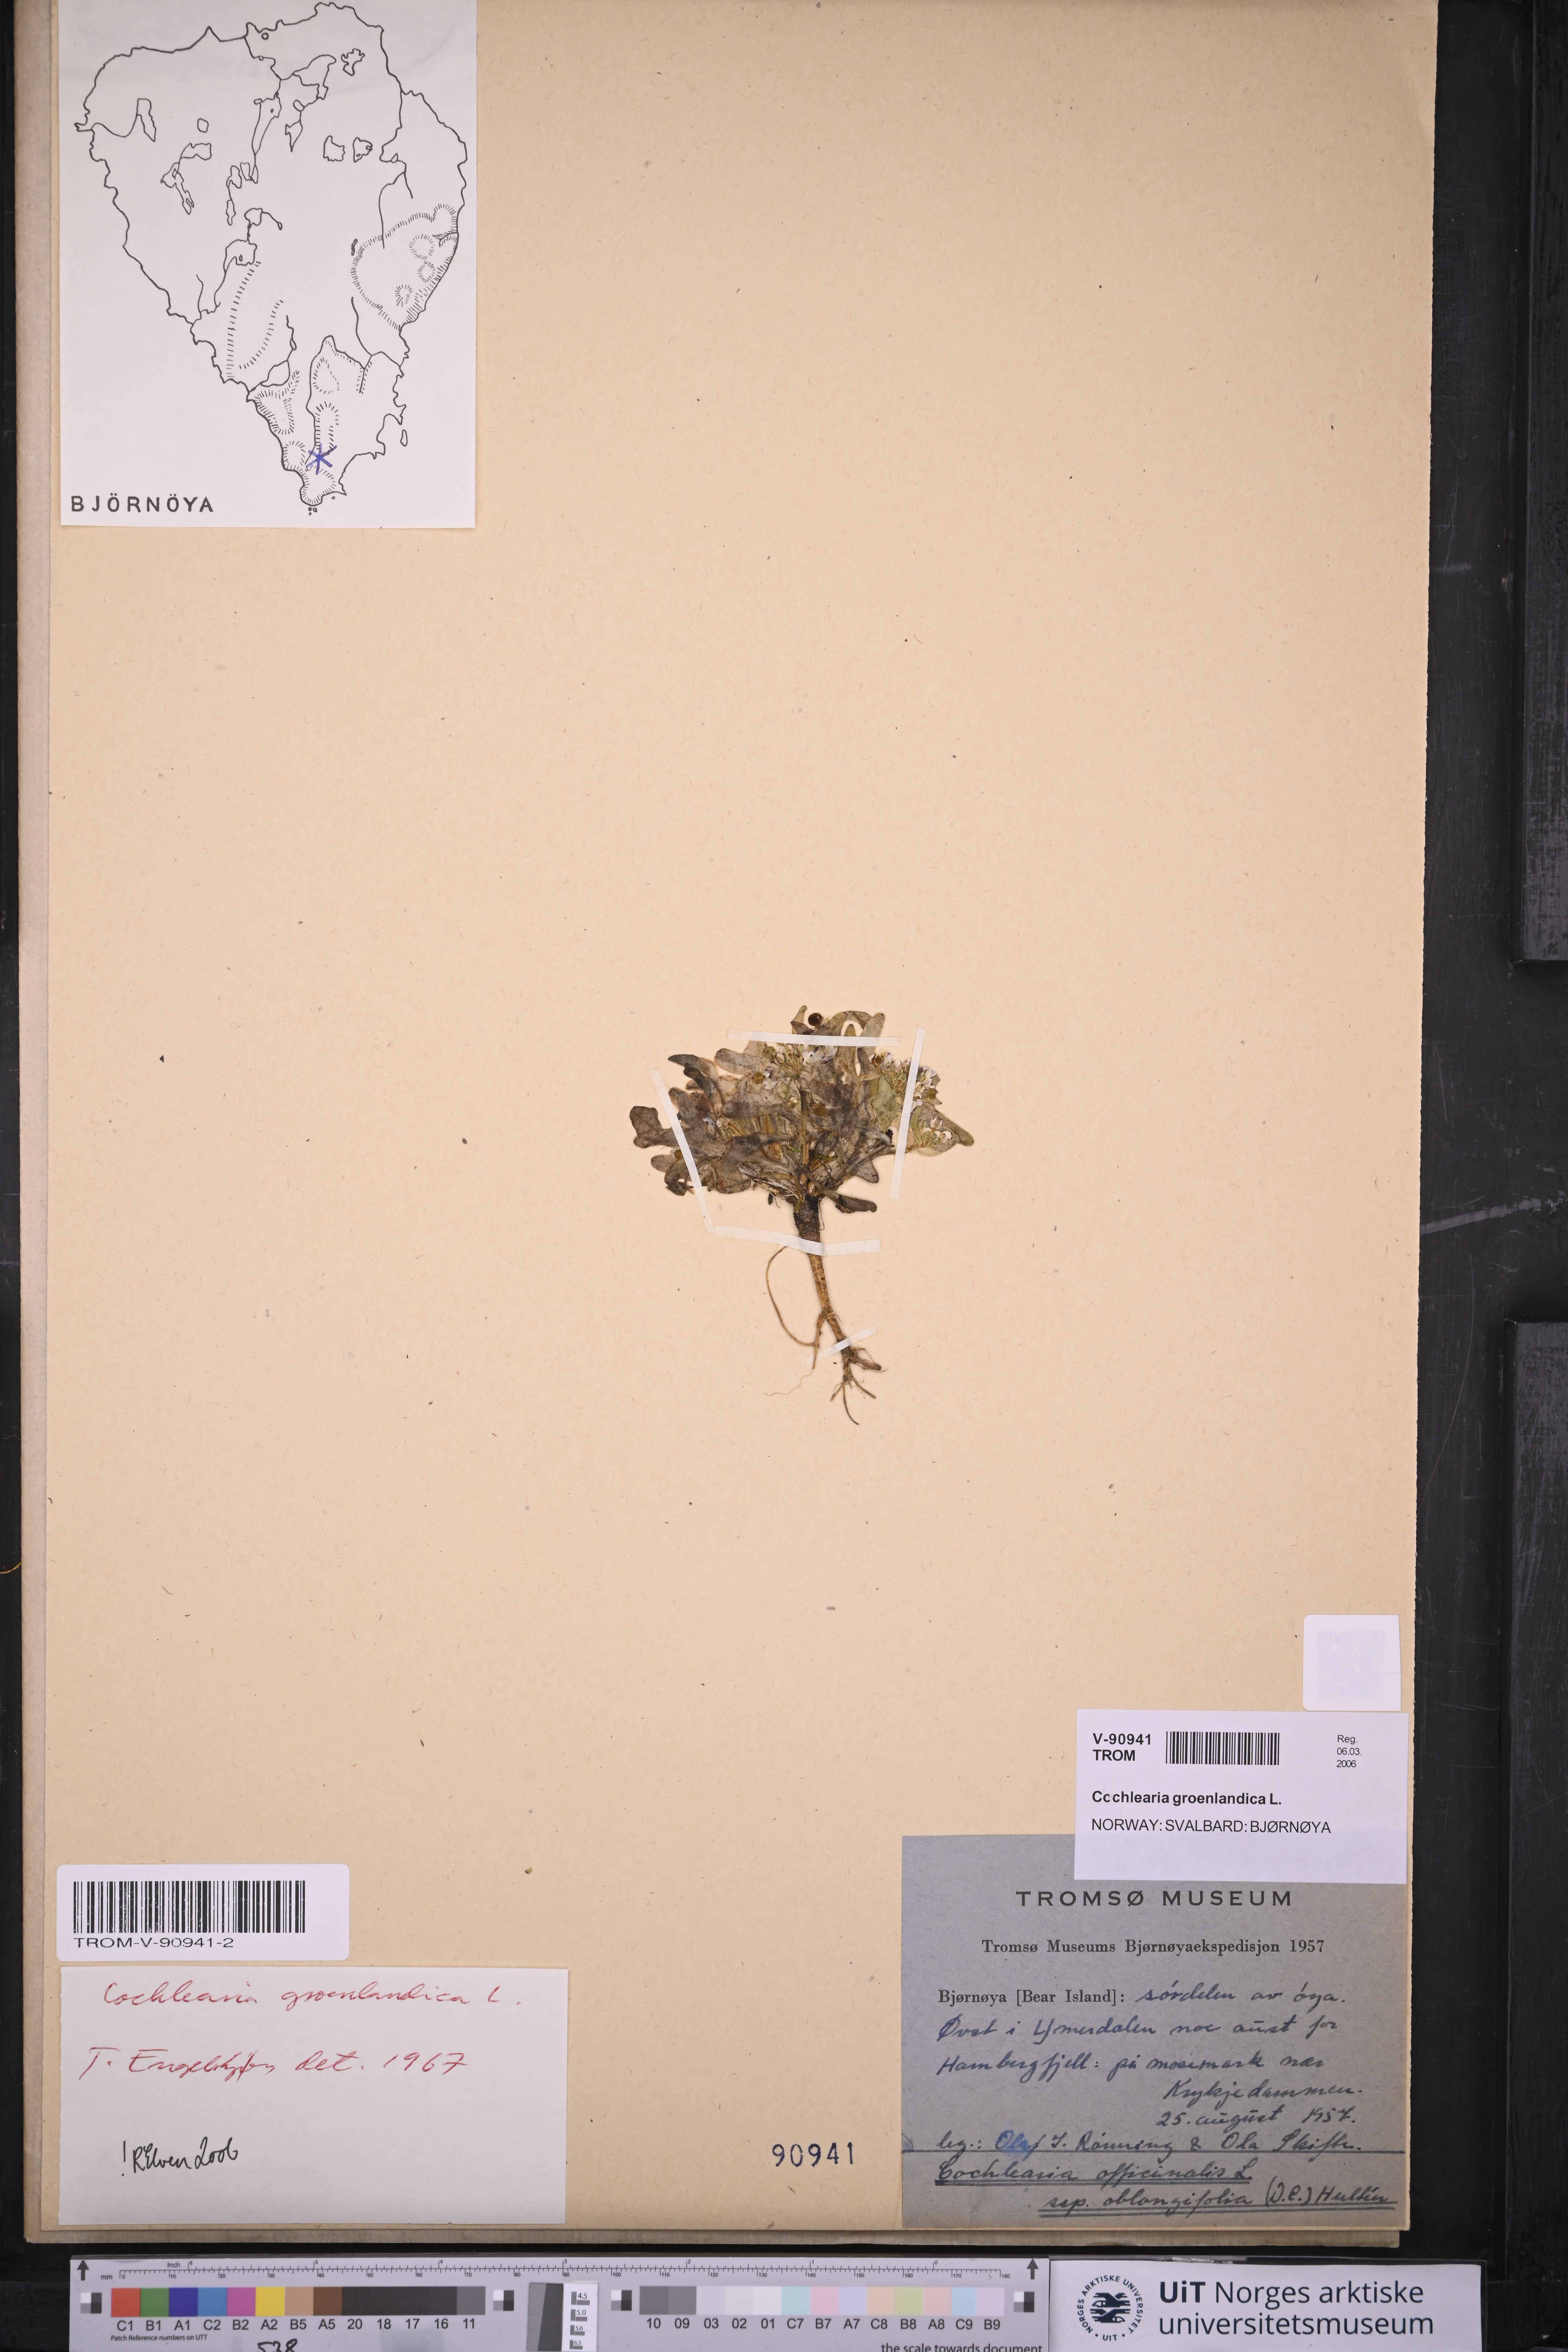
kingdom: Plantae
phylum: Tracheophyta
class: Magnoliopsida
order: Brassicales
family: Brassicaceae
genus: Cochlearia
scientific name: Cochlearia groenlandica
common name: Danish scurvygrass
